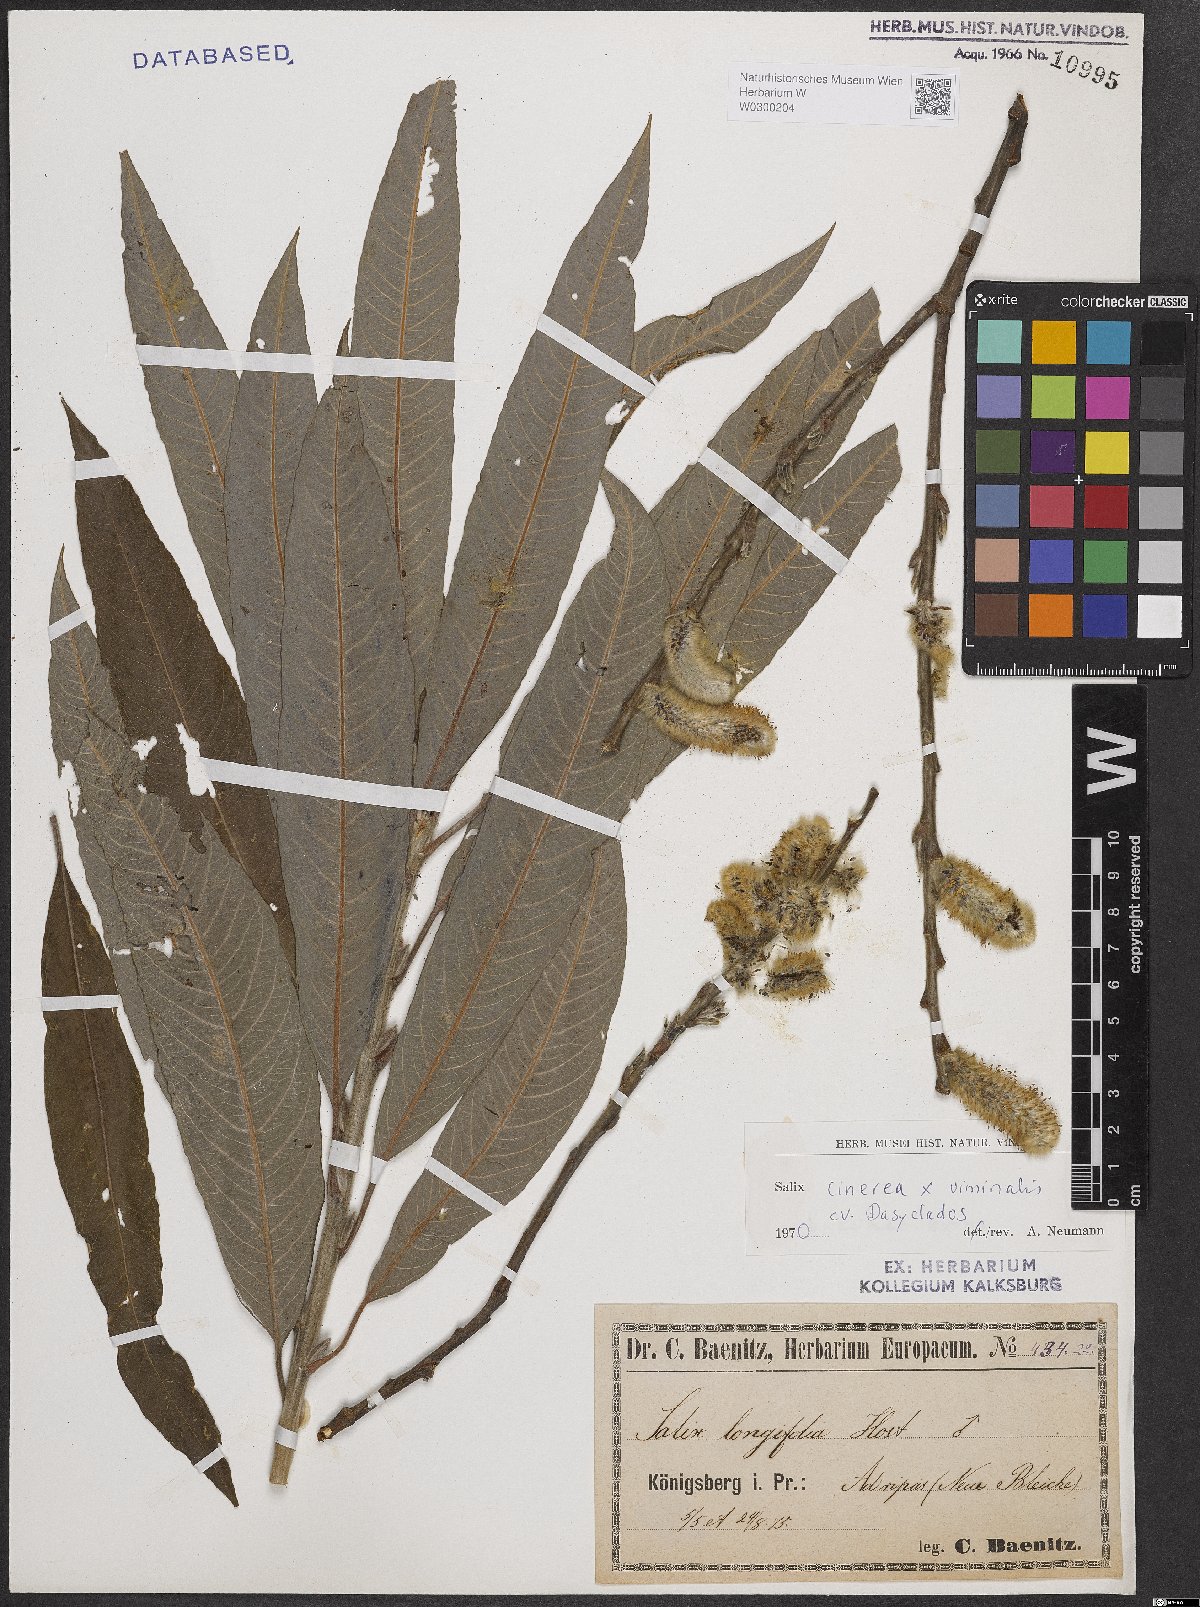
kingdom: Plantae
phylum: Tracheophyta
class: Magnoliopsida
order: Malpighiales
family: Salicaceae
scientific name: Salicaceae
